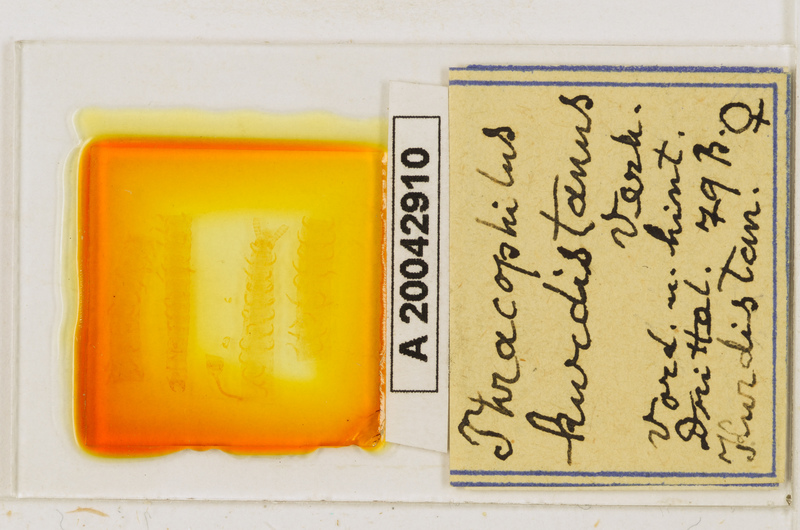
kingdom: Animalia
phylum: Arthropoda
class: Chilopoda
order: Geophilomorpha
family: Himantariidae
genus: Thracophilus
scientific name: Thracophilus
